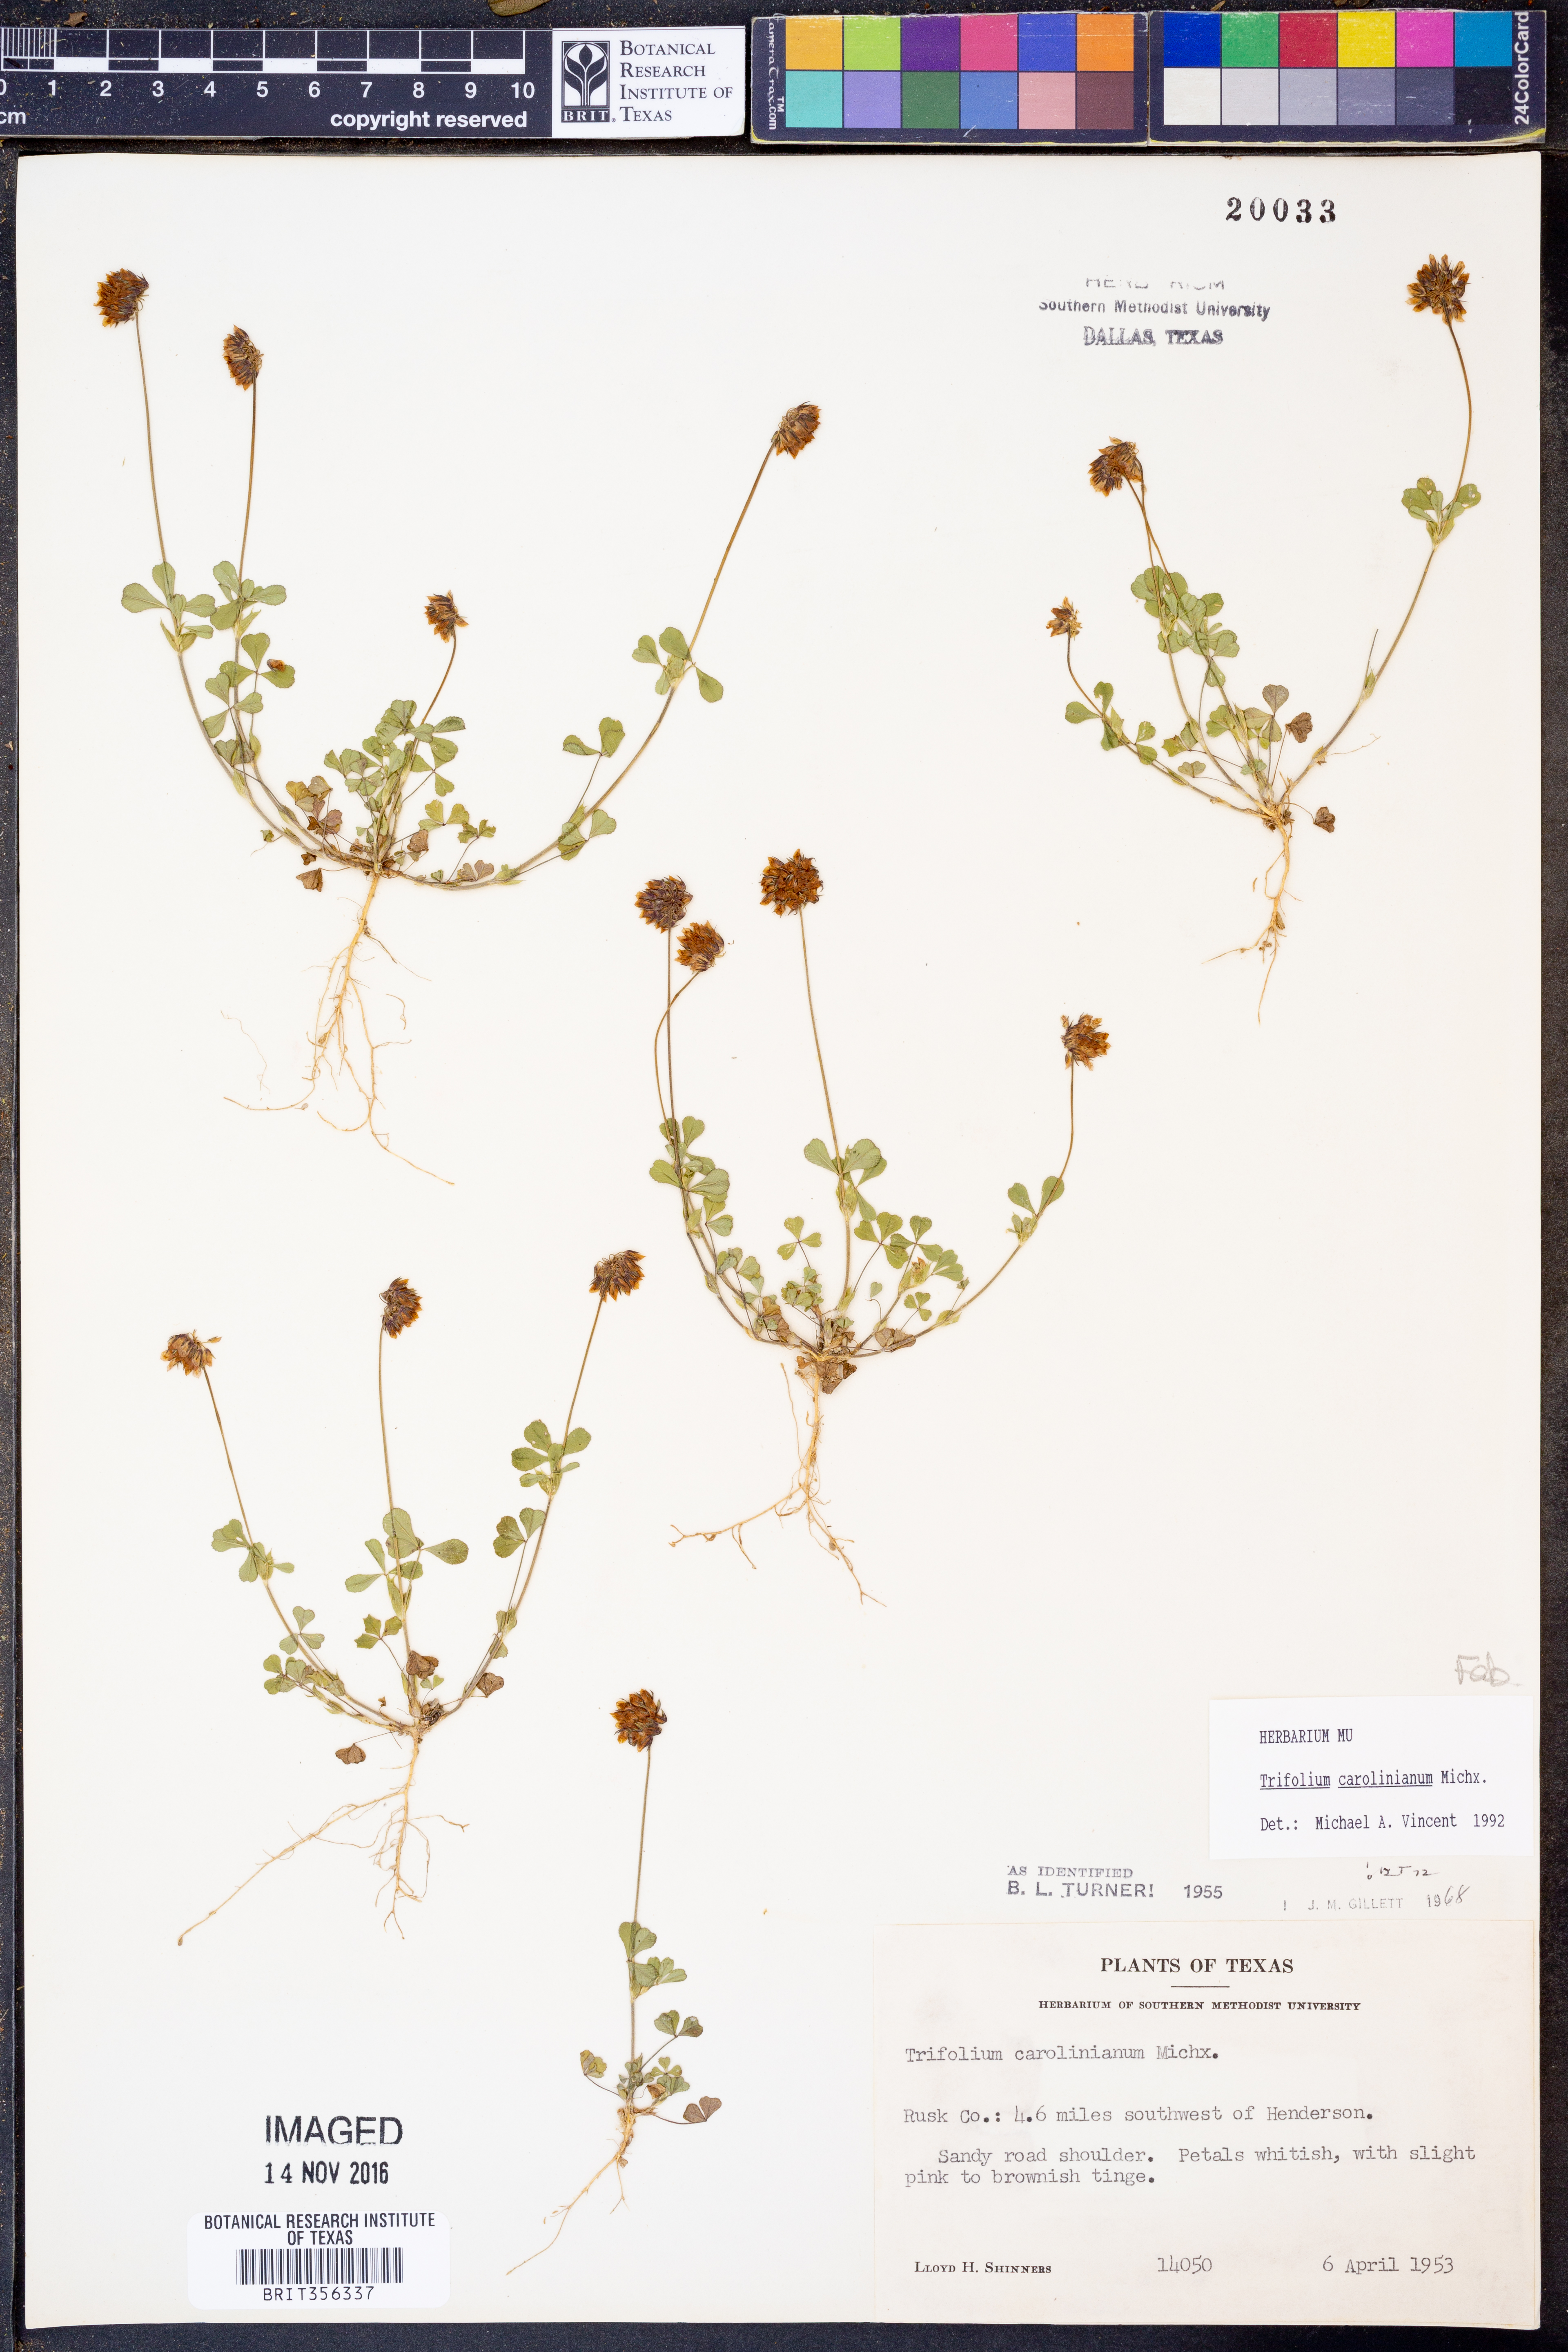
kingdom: Plantae
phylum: Tracheophyta
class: Magnoliopsida
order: Fabales
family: Fabaceae
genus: Trifolium
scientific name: Trifolium carolinianum
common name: Wild white clover
